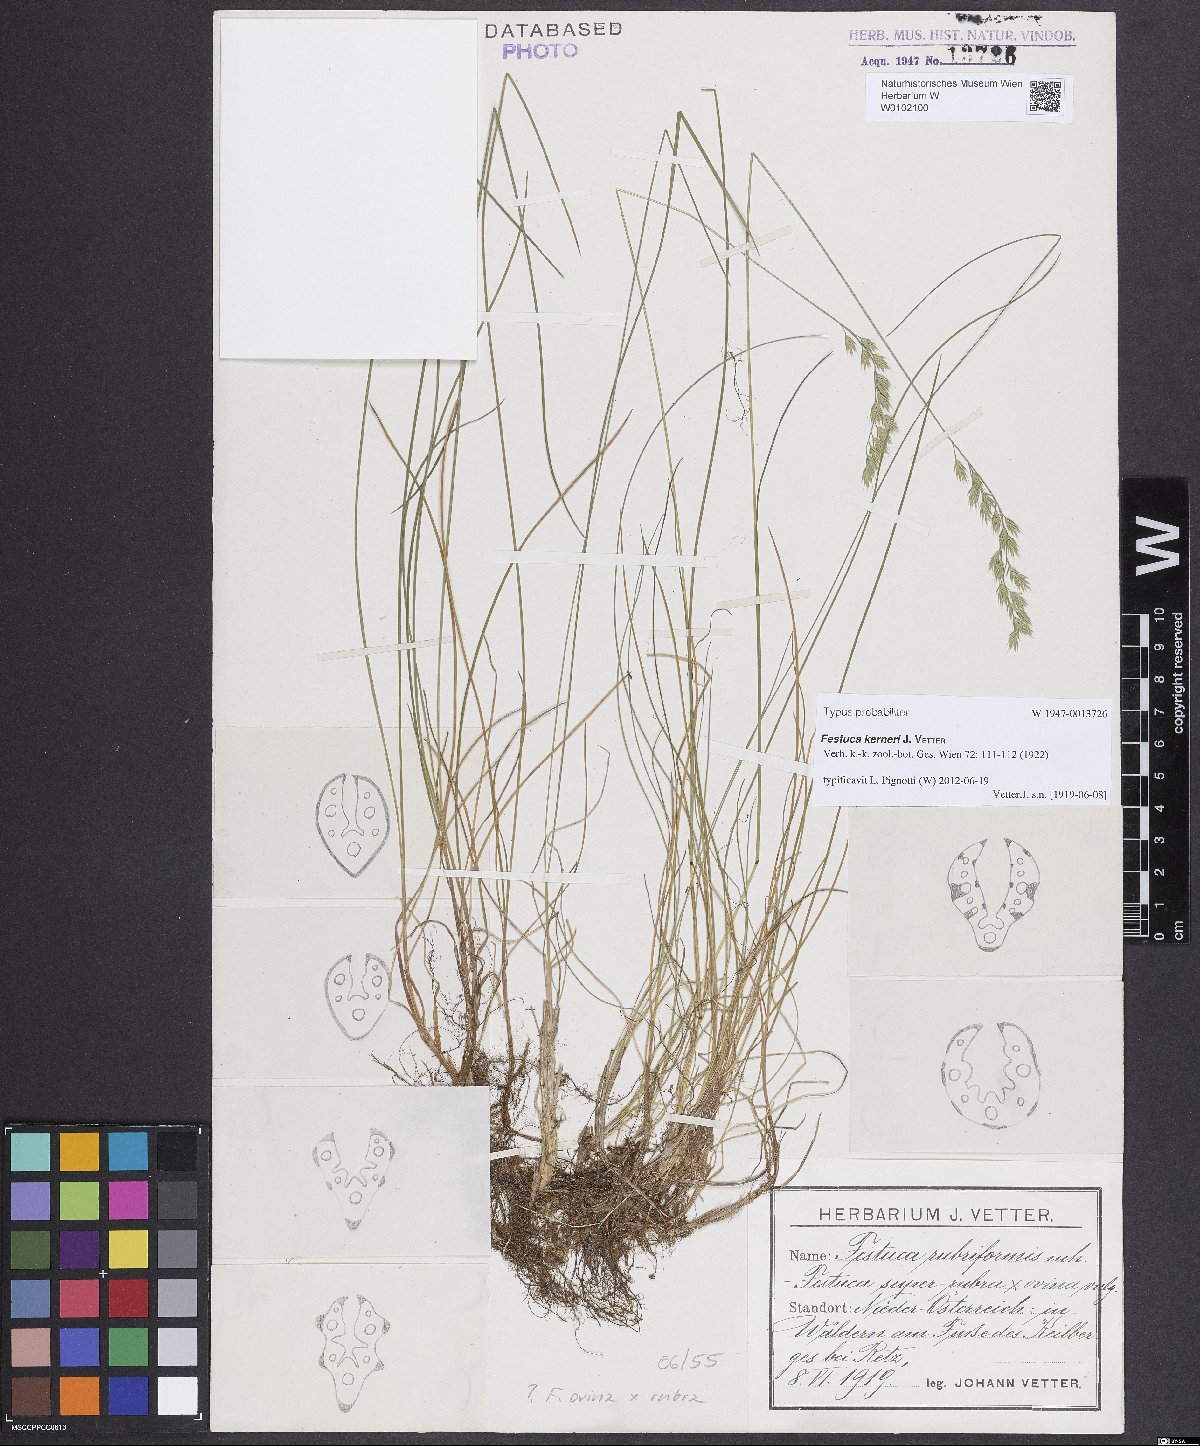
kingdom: Plantae
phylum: Tracheophyta
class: Liliopsida
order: Poales
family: Poaceae
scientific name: Poaceae
